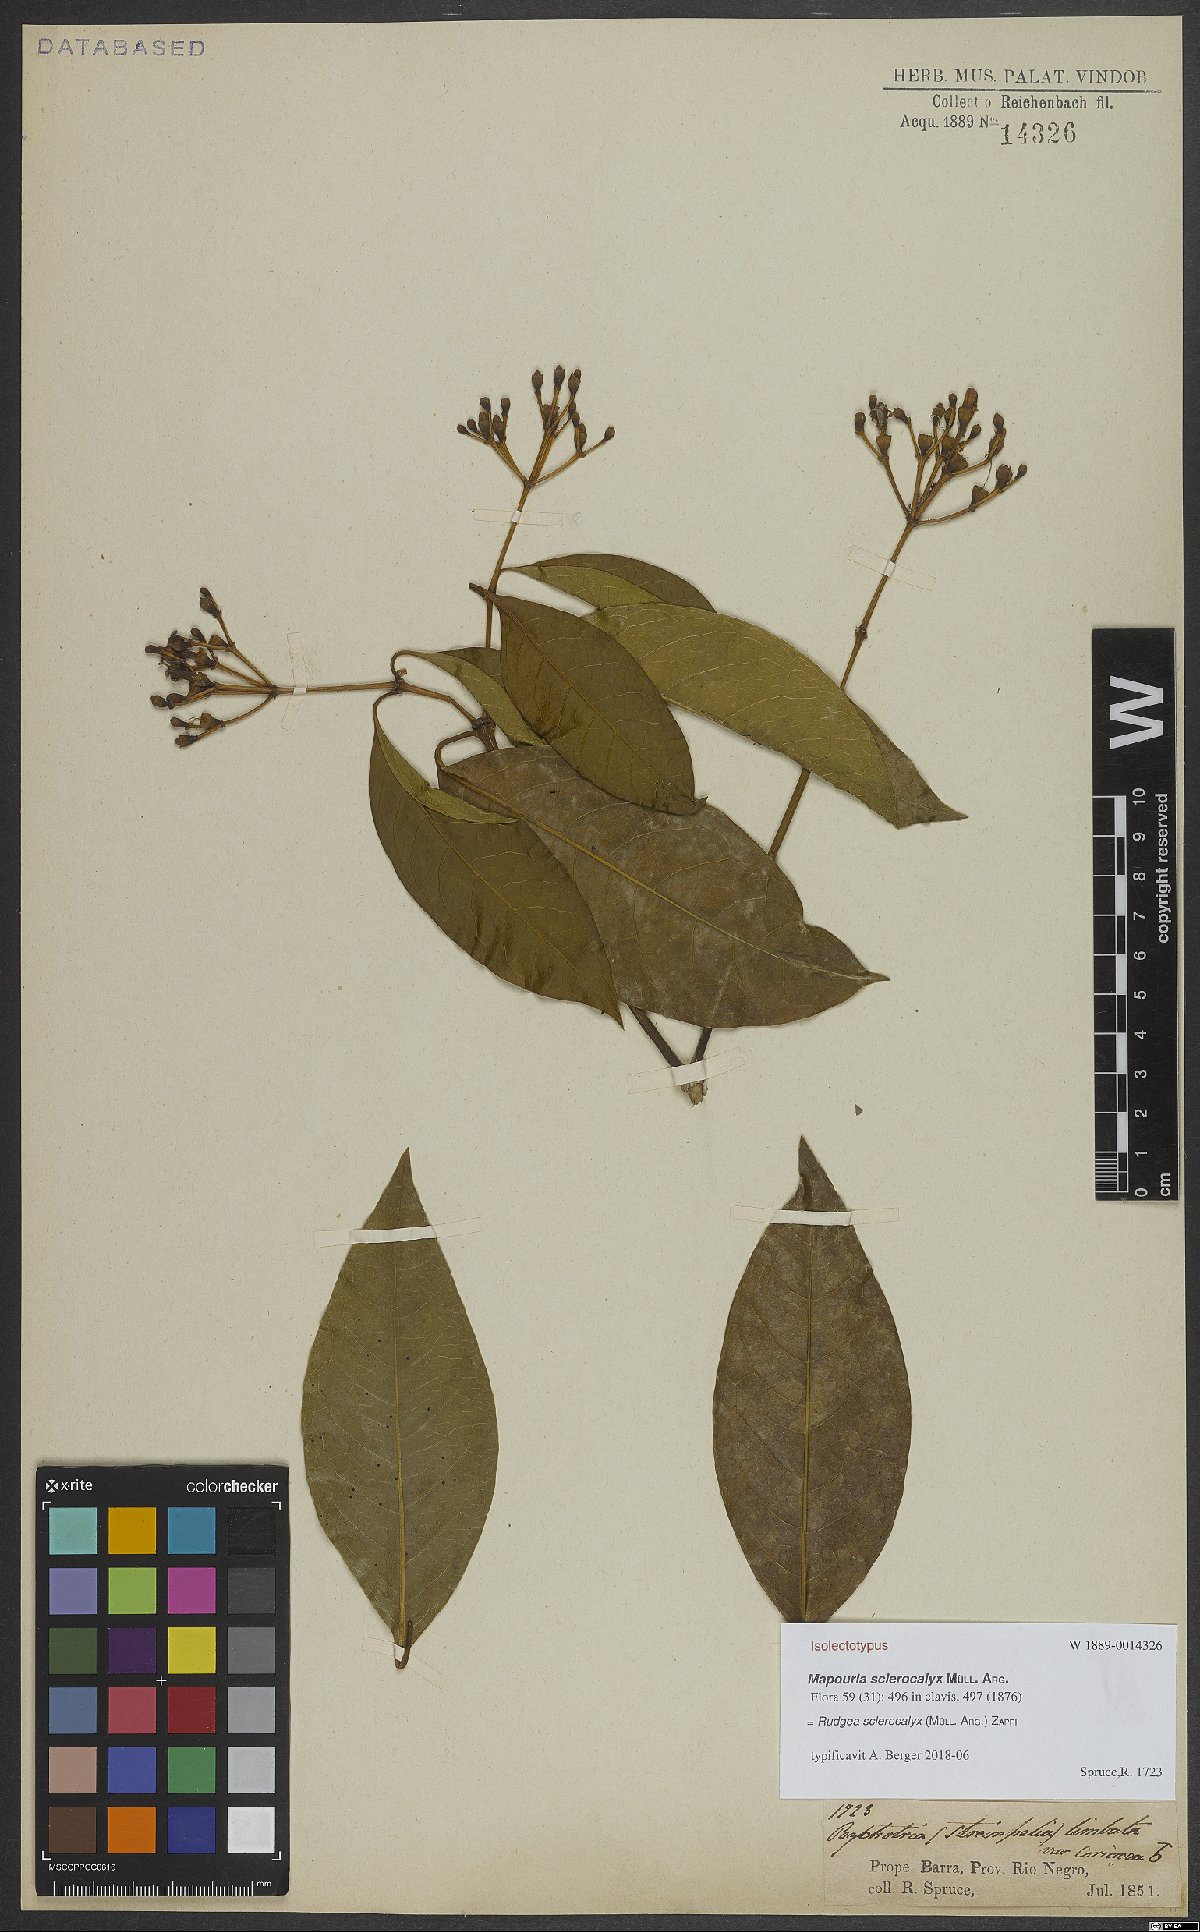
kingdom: Plantae
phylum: Tracheophyta
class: Magnoliopsida
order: Gentianales
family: Rubiaceae
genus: Rudgea
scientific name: Rudgea sclerocalyx
